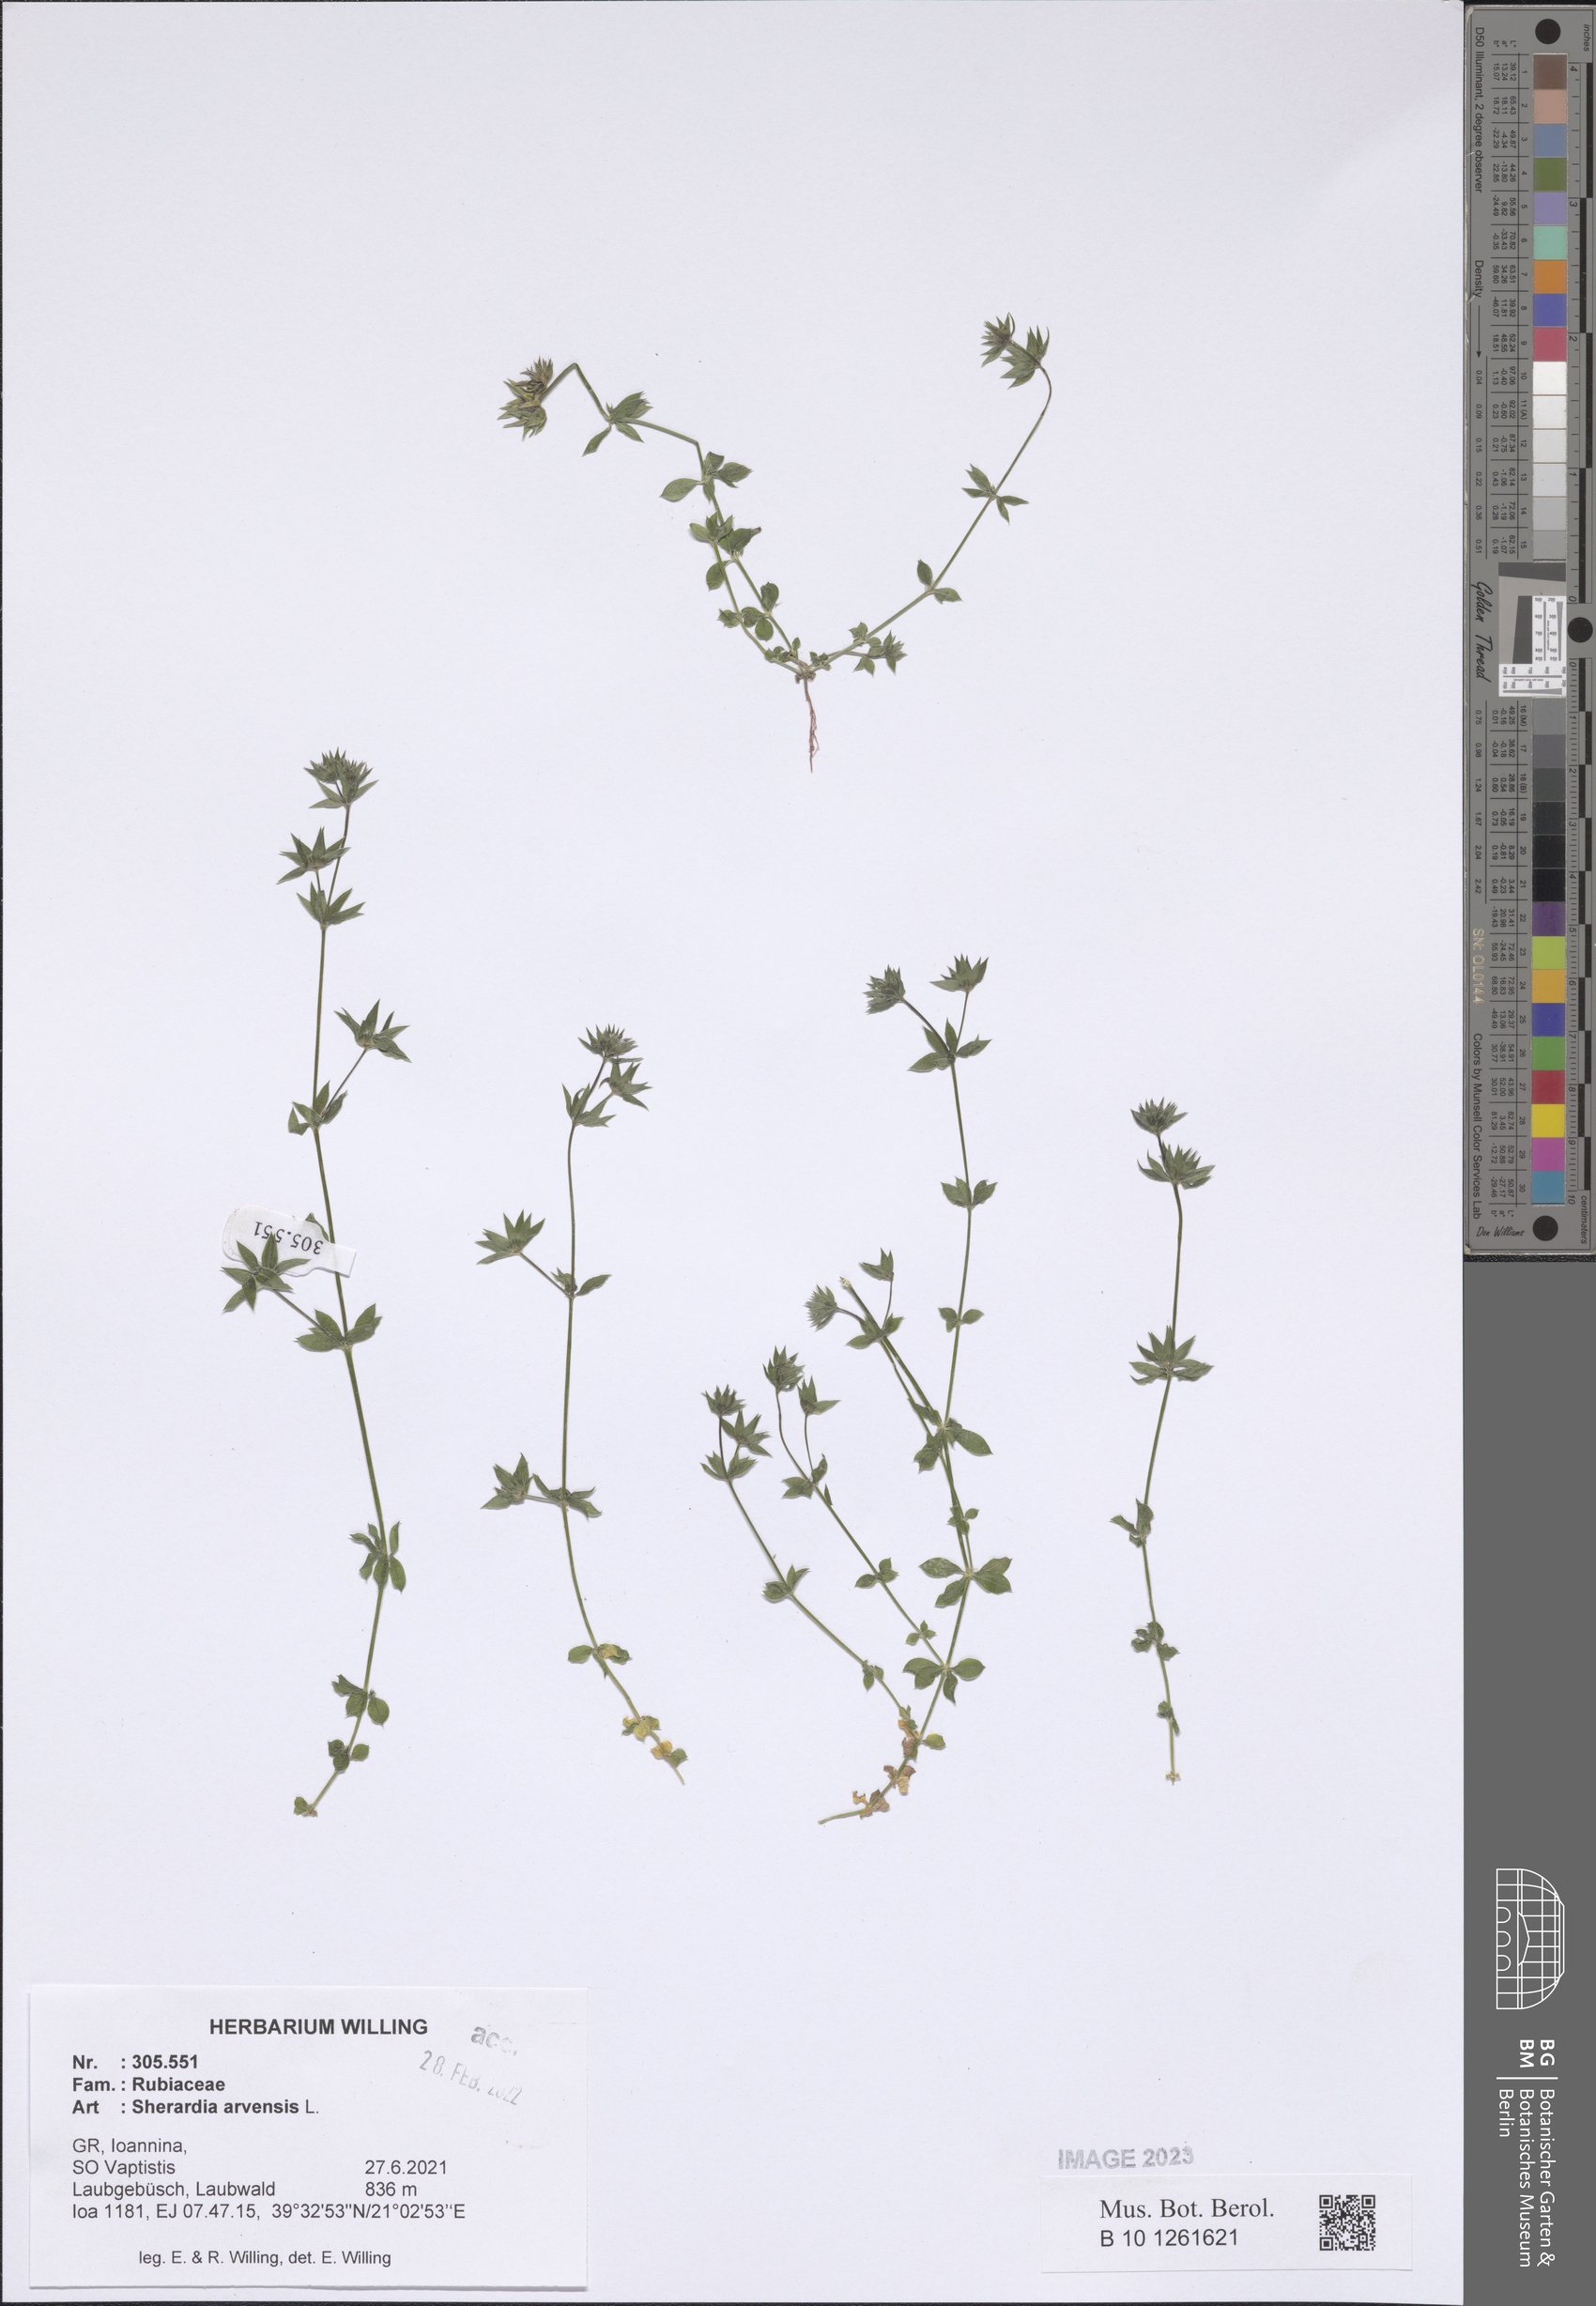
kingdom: Plantae
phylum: Tracheophyta
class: Magnoliopsida
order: Gentianales
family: Rubiaceae
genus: Sherardia
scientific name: Sherardia arvensis
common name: Field madder
